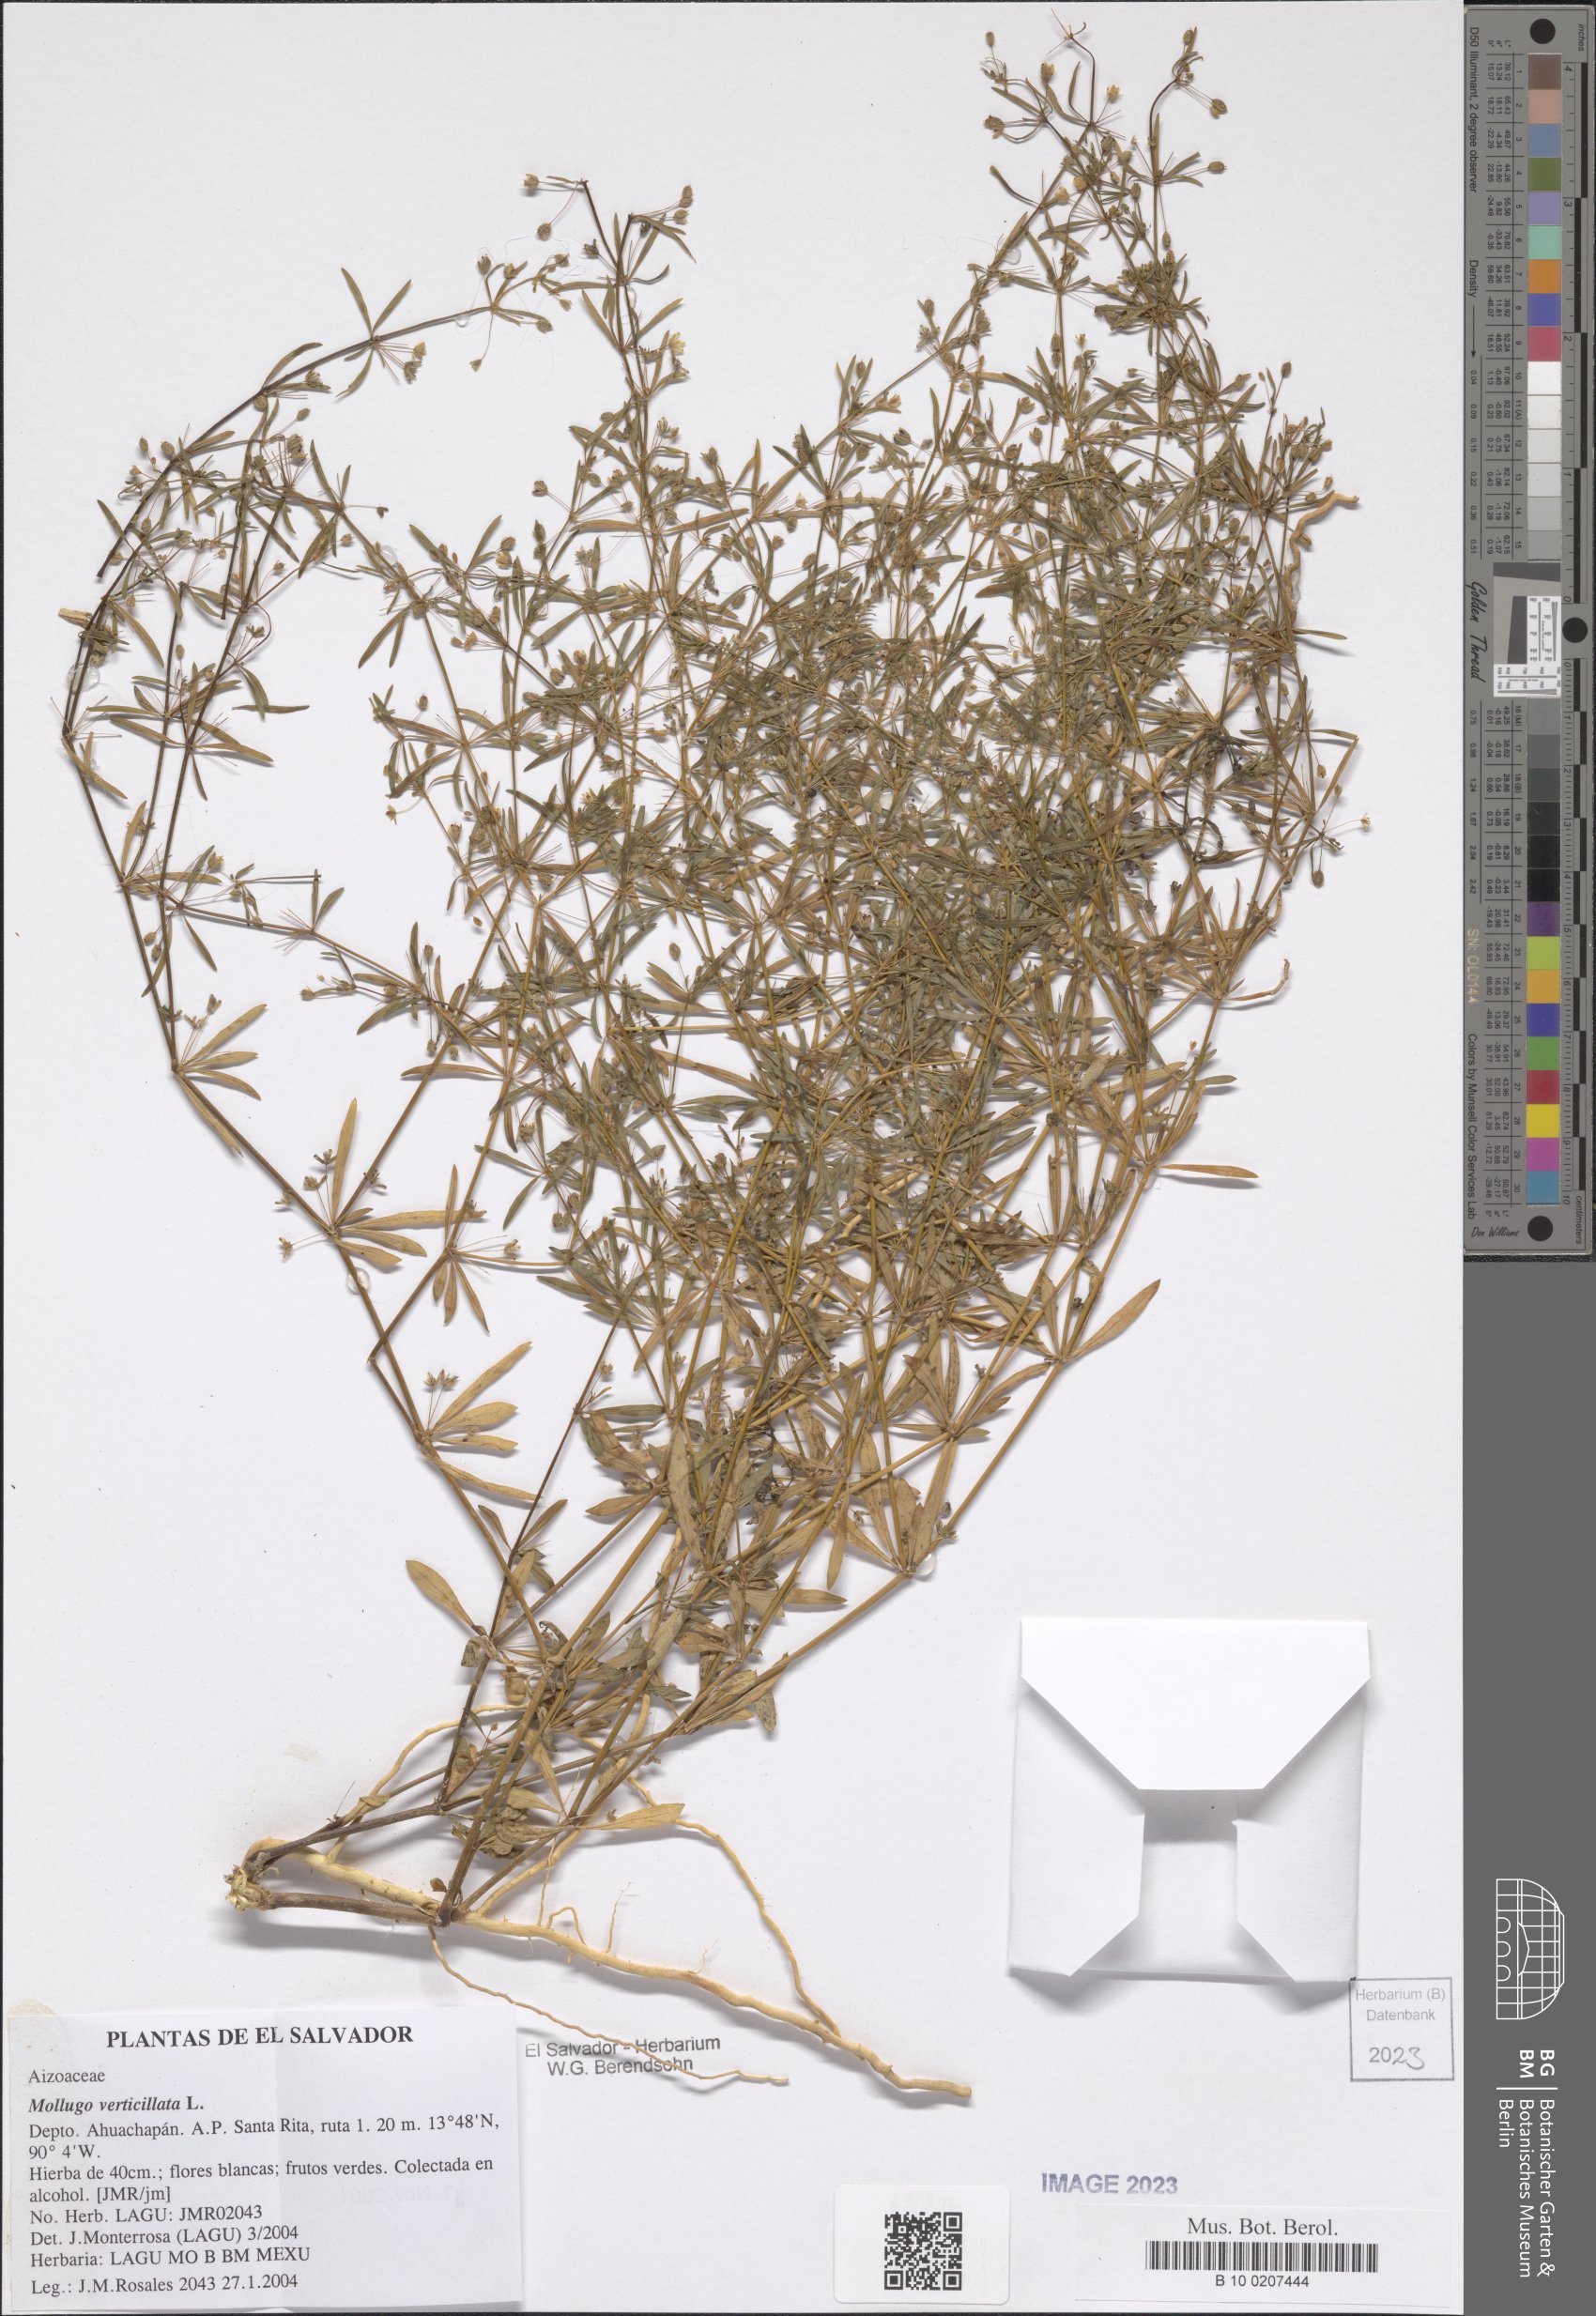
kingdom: Plantae
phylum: Tracheophyta
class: Magnoliopsida
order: Caryophyllales
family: Molluginaceae
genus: Mollugo
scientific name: Mollugo verticillata
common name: Green carpetweed
